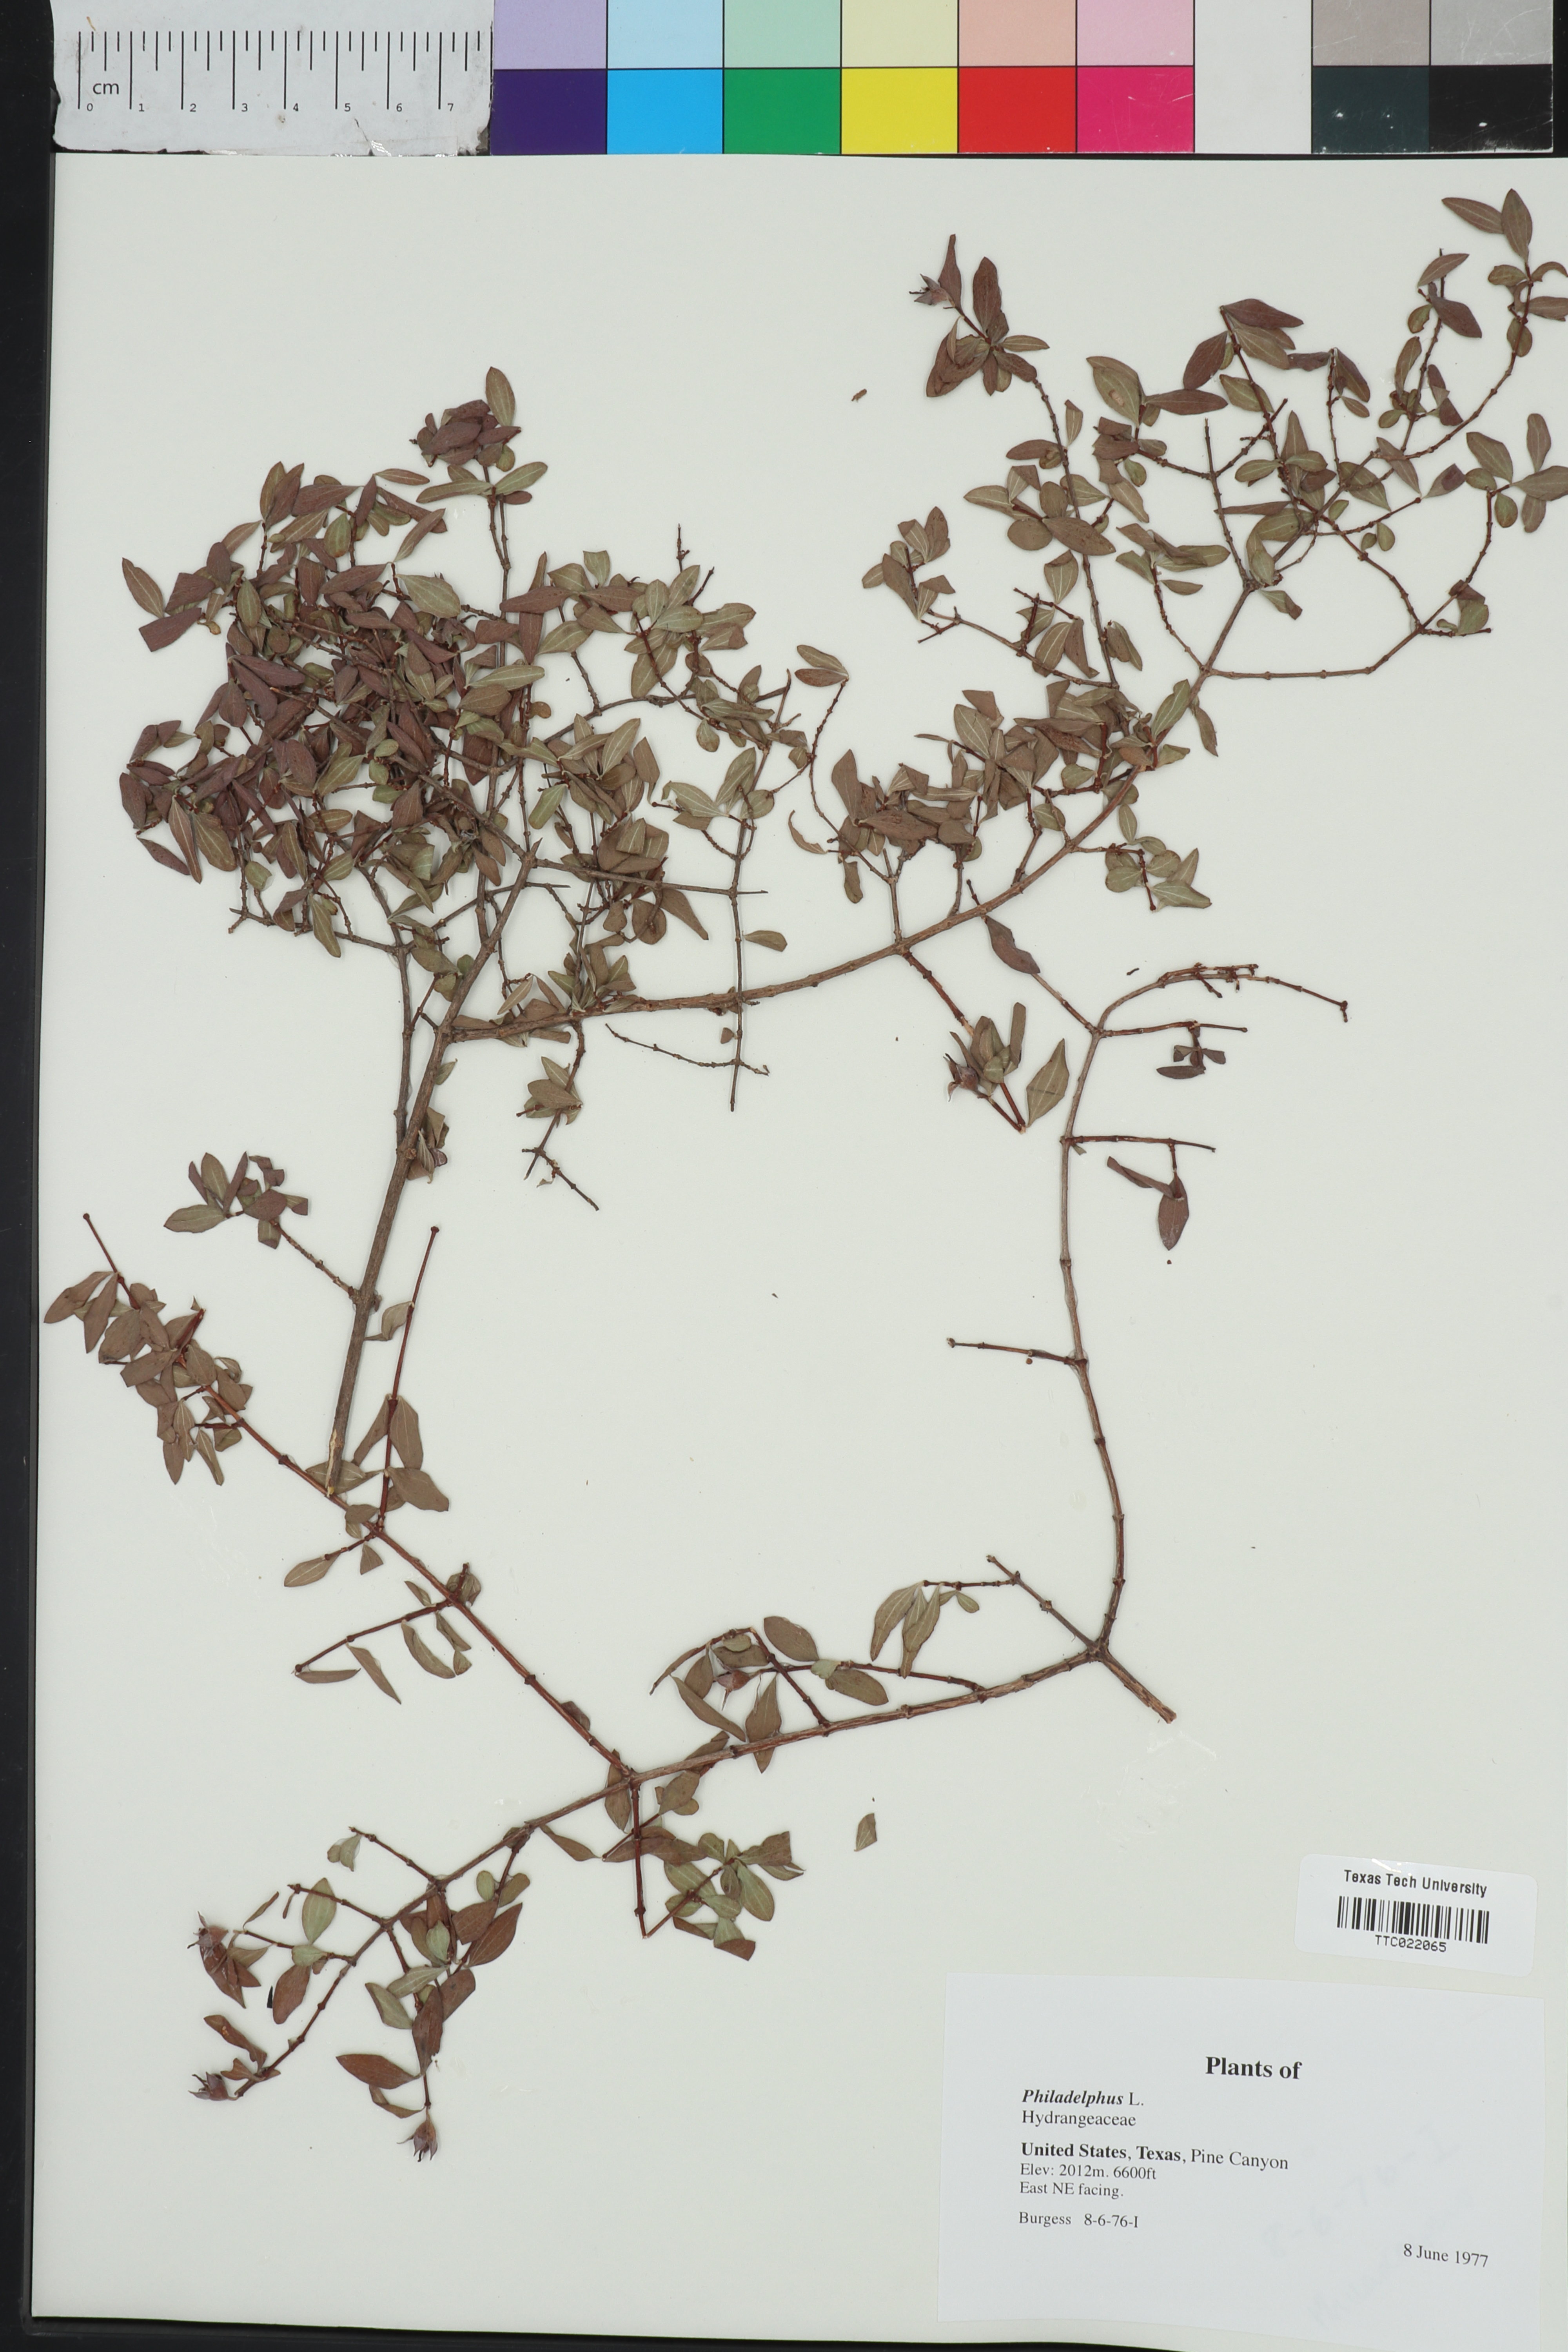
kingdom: Plantae
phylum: Tracheophyta
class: Magnoliopsida
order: Cornales
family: Hydrangeaceae
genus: Philadelphus
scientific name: Philadelphus
